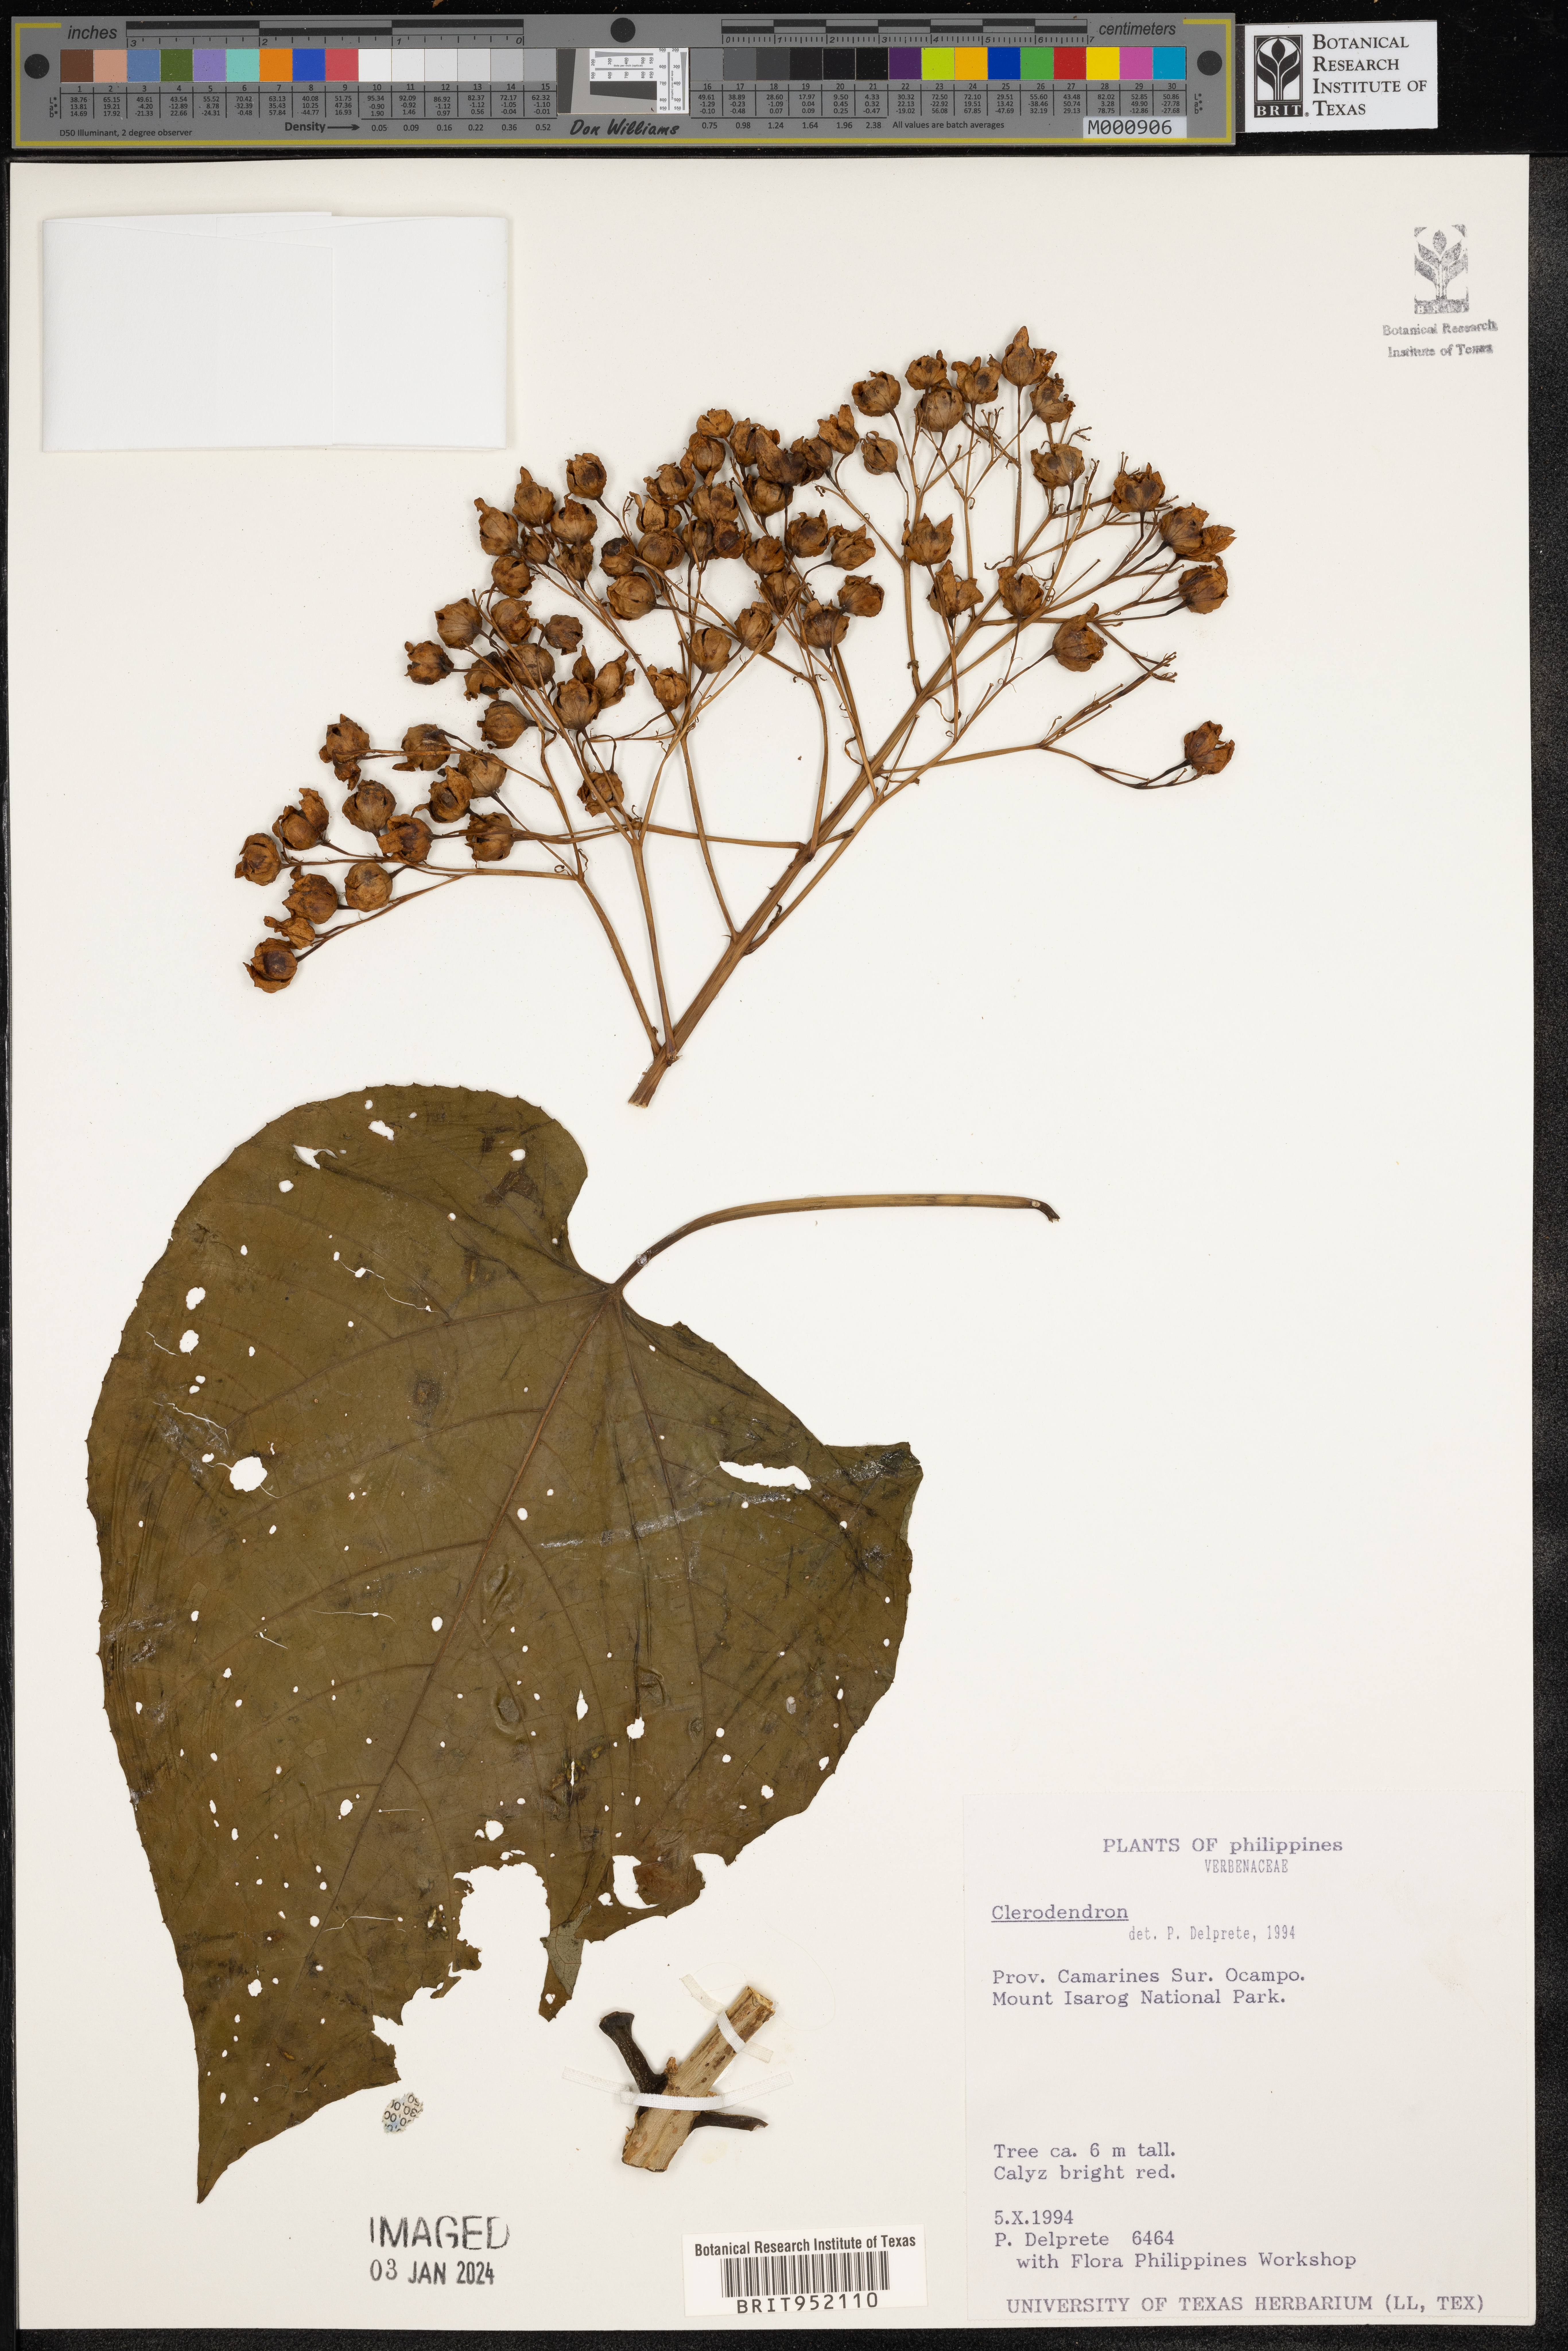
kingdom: Plantae
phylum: Tracheophyta
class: Magnoliopsida
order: Lamiales
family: Lamiaceae
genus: Clerodendrum
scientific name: Clerodendrum
